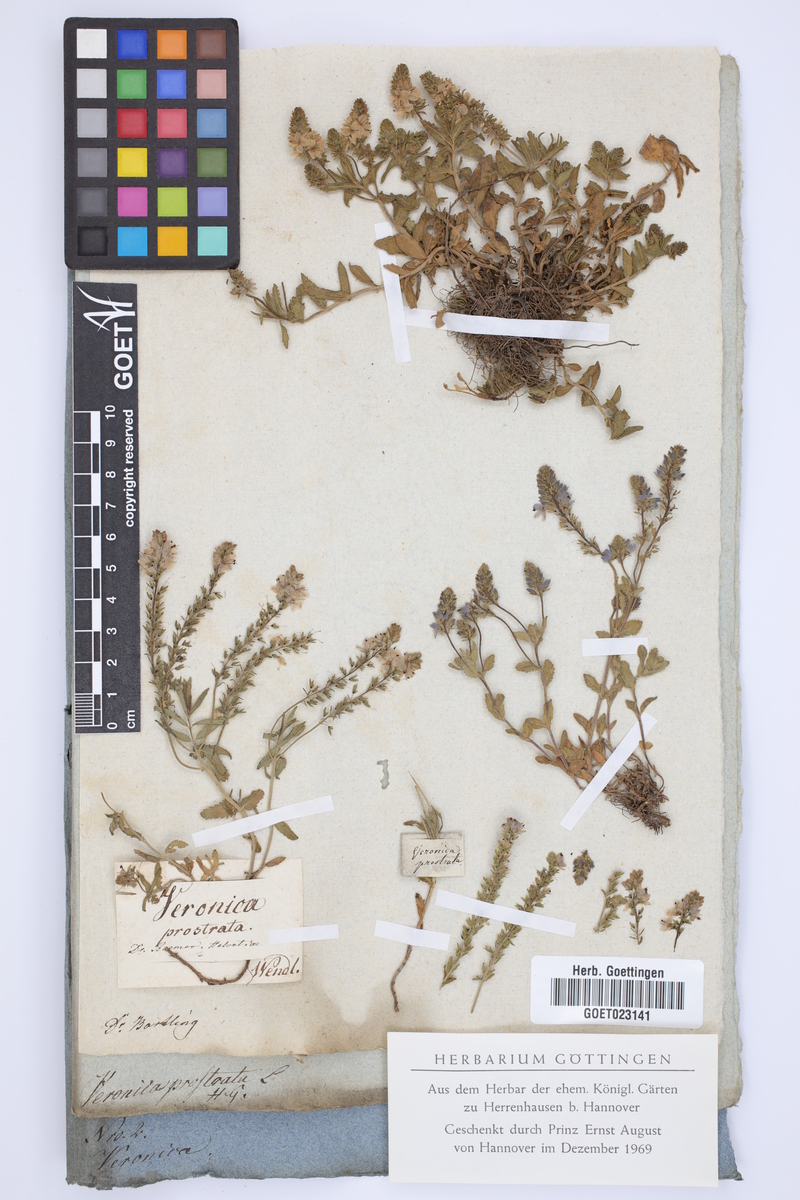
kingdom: Plantae
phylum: Tracheophyta
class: Magnoliopsida
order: Lamiales
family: Plantaginaceae
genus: Veronica
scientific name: Veronica prostrata
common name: Prostrate speedwell
